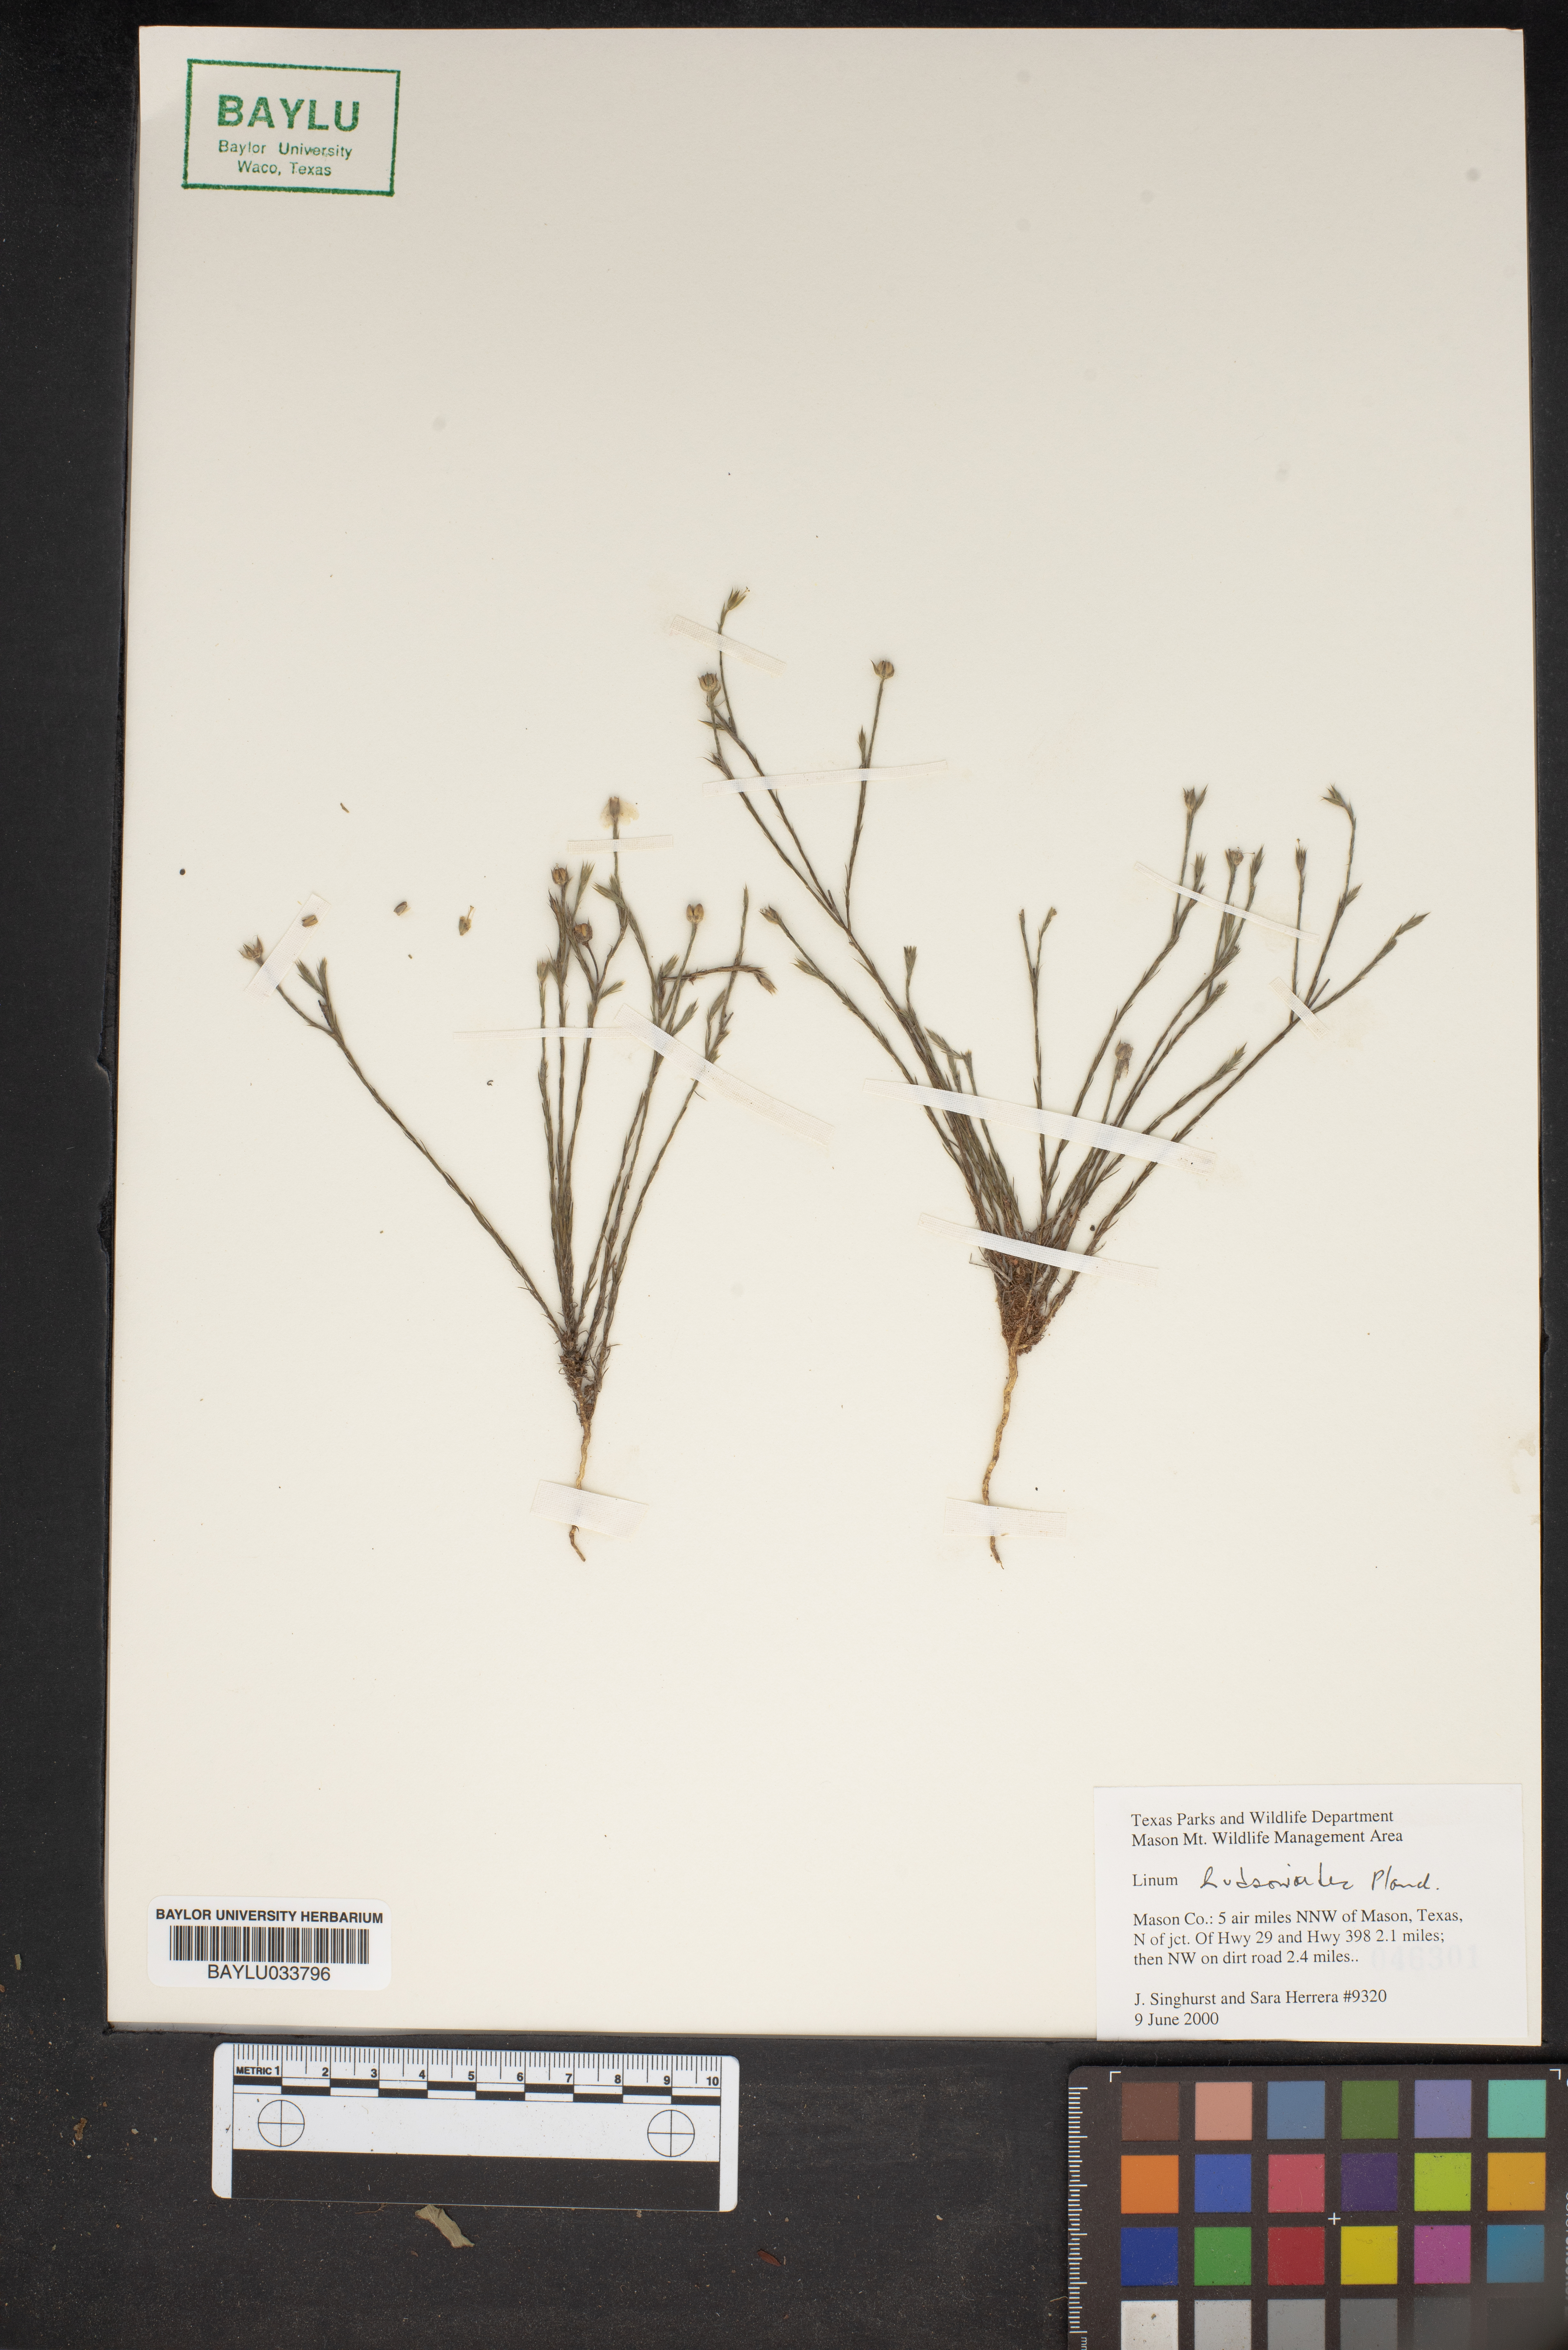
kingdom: Plantae
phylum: Tracheophyta
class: Magnoliopsida
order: Malpighiales
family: Linaceae
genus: Linum
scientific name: Linum
